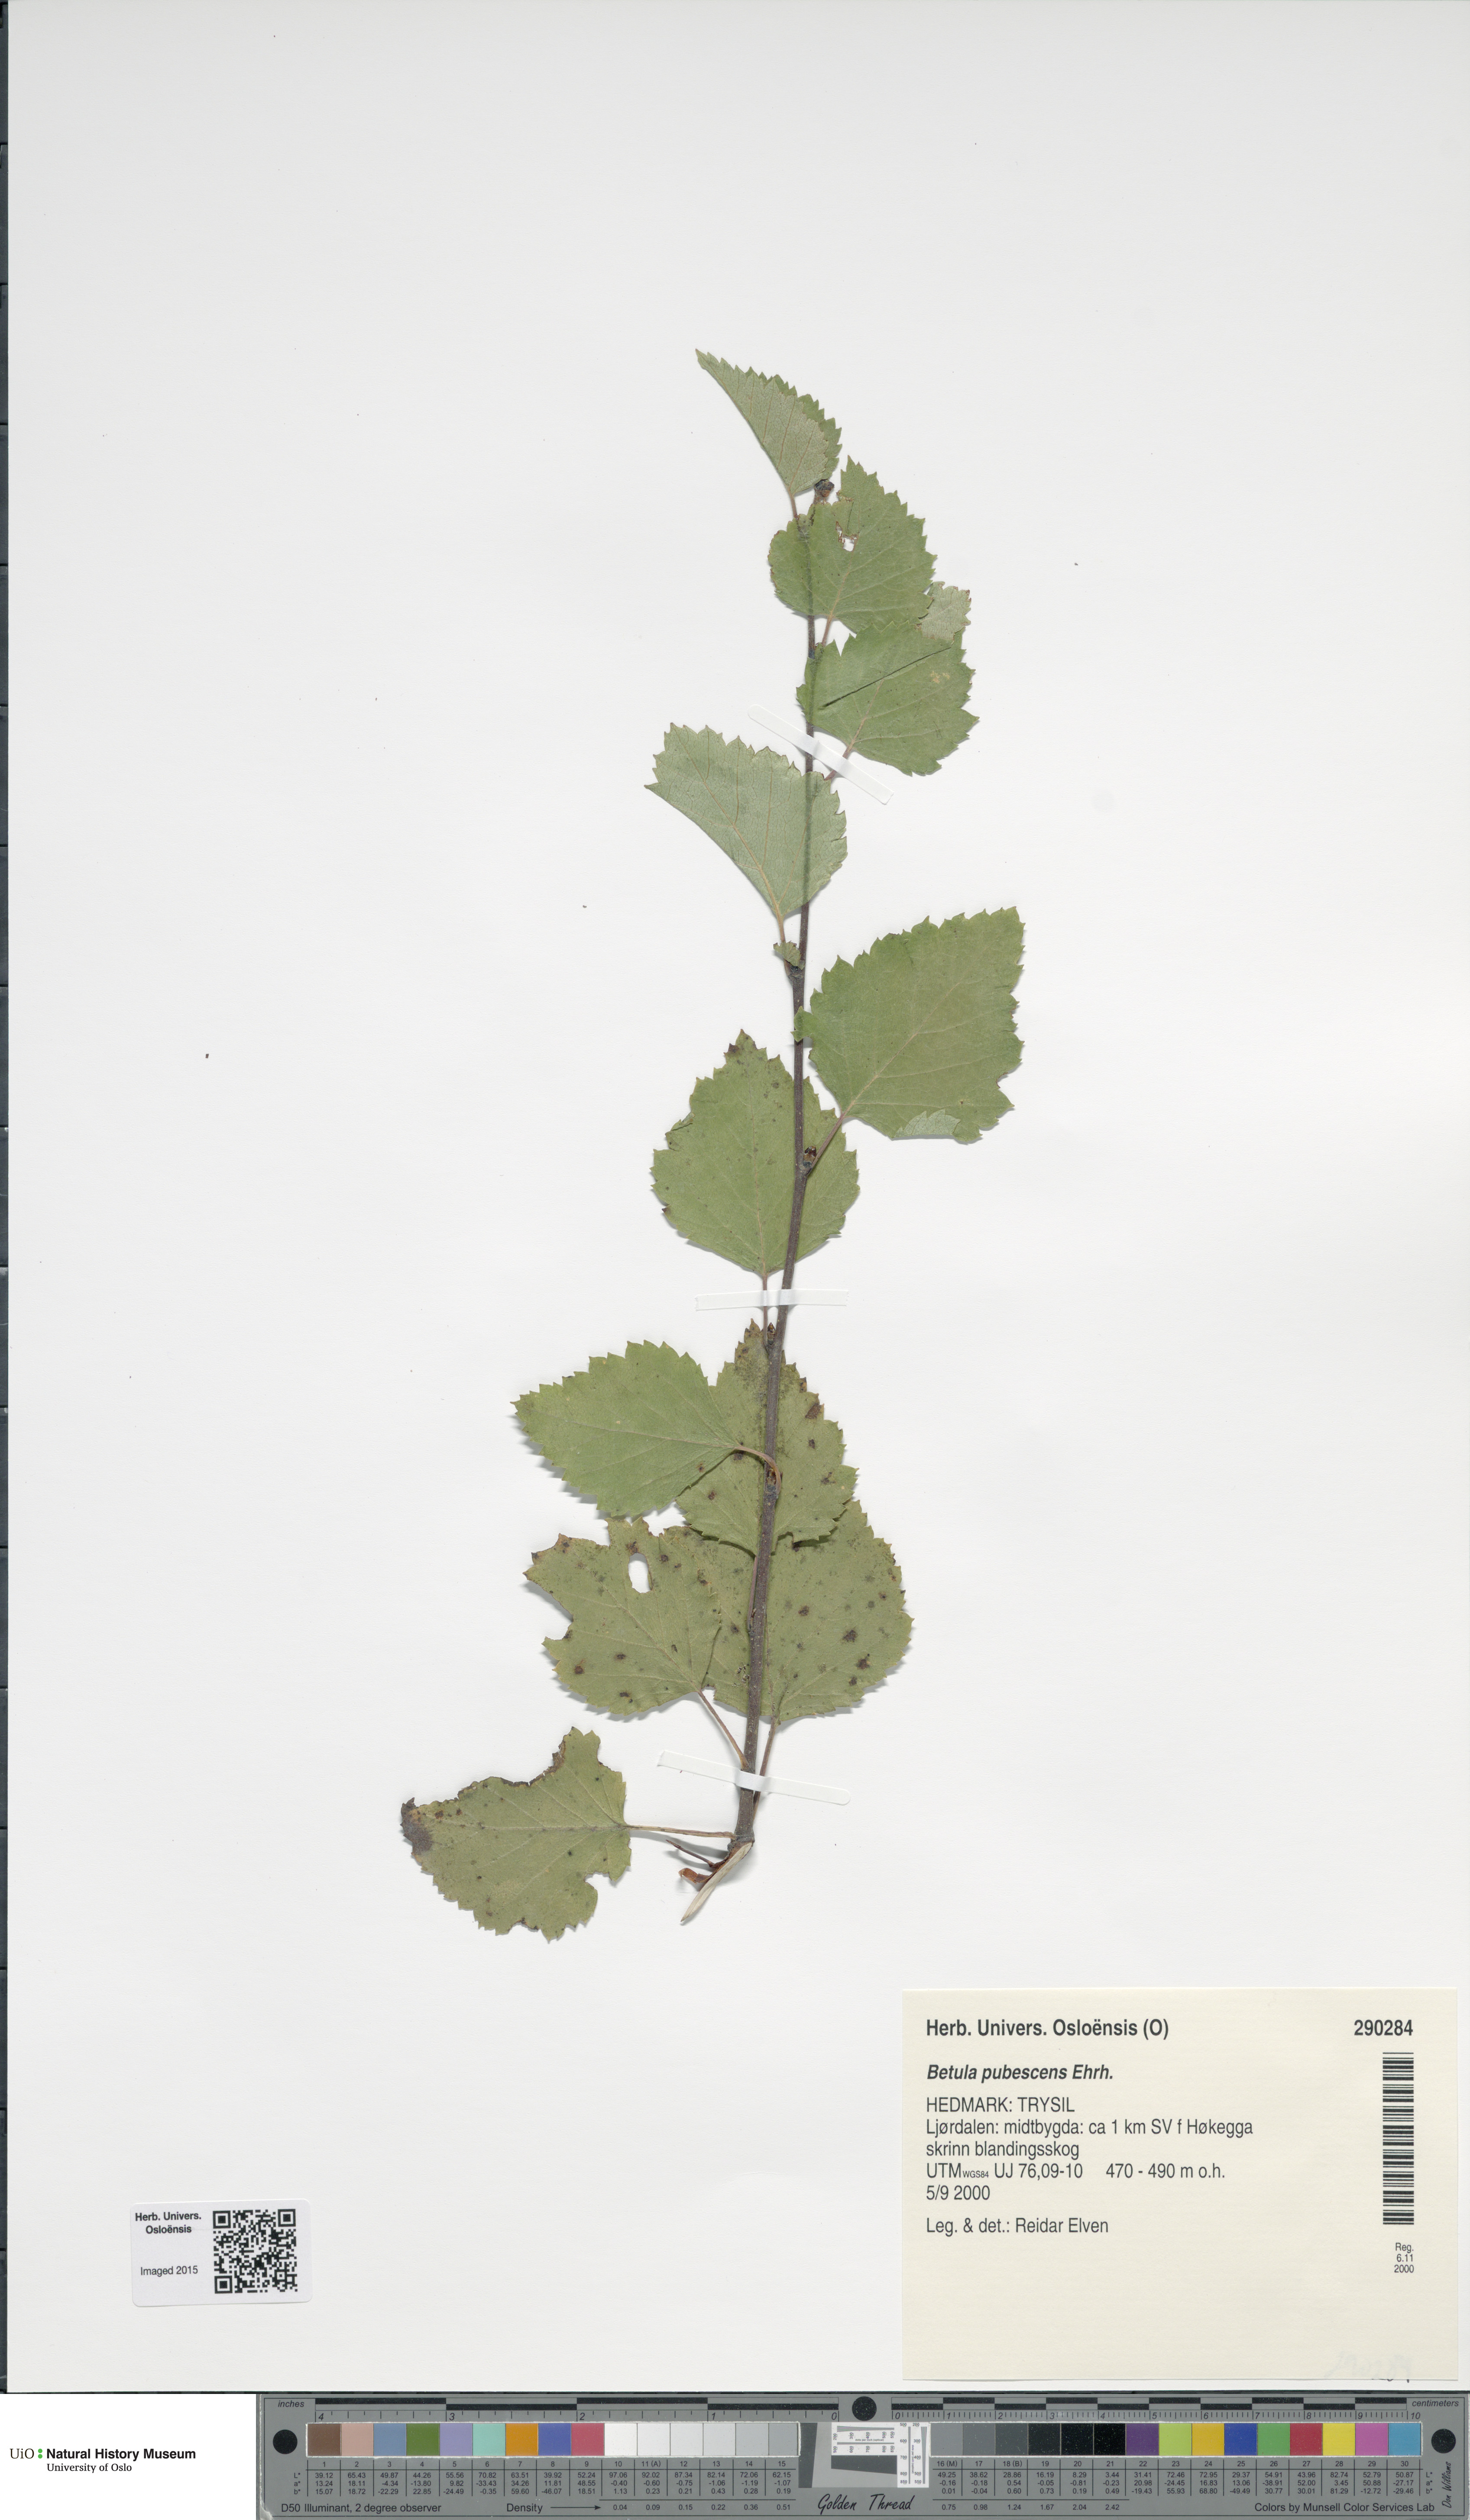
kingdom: Plantae
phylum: Tracheophyta
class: Magnoliopsida
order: Fagales
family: Betulaceae
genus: Betula
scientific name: Betula pubescens
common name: Downy birch
